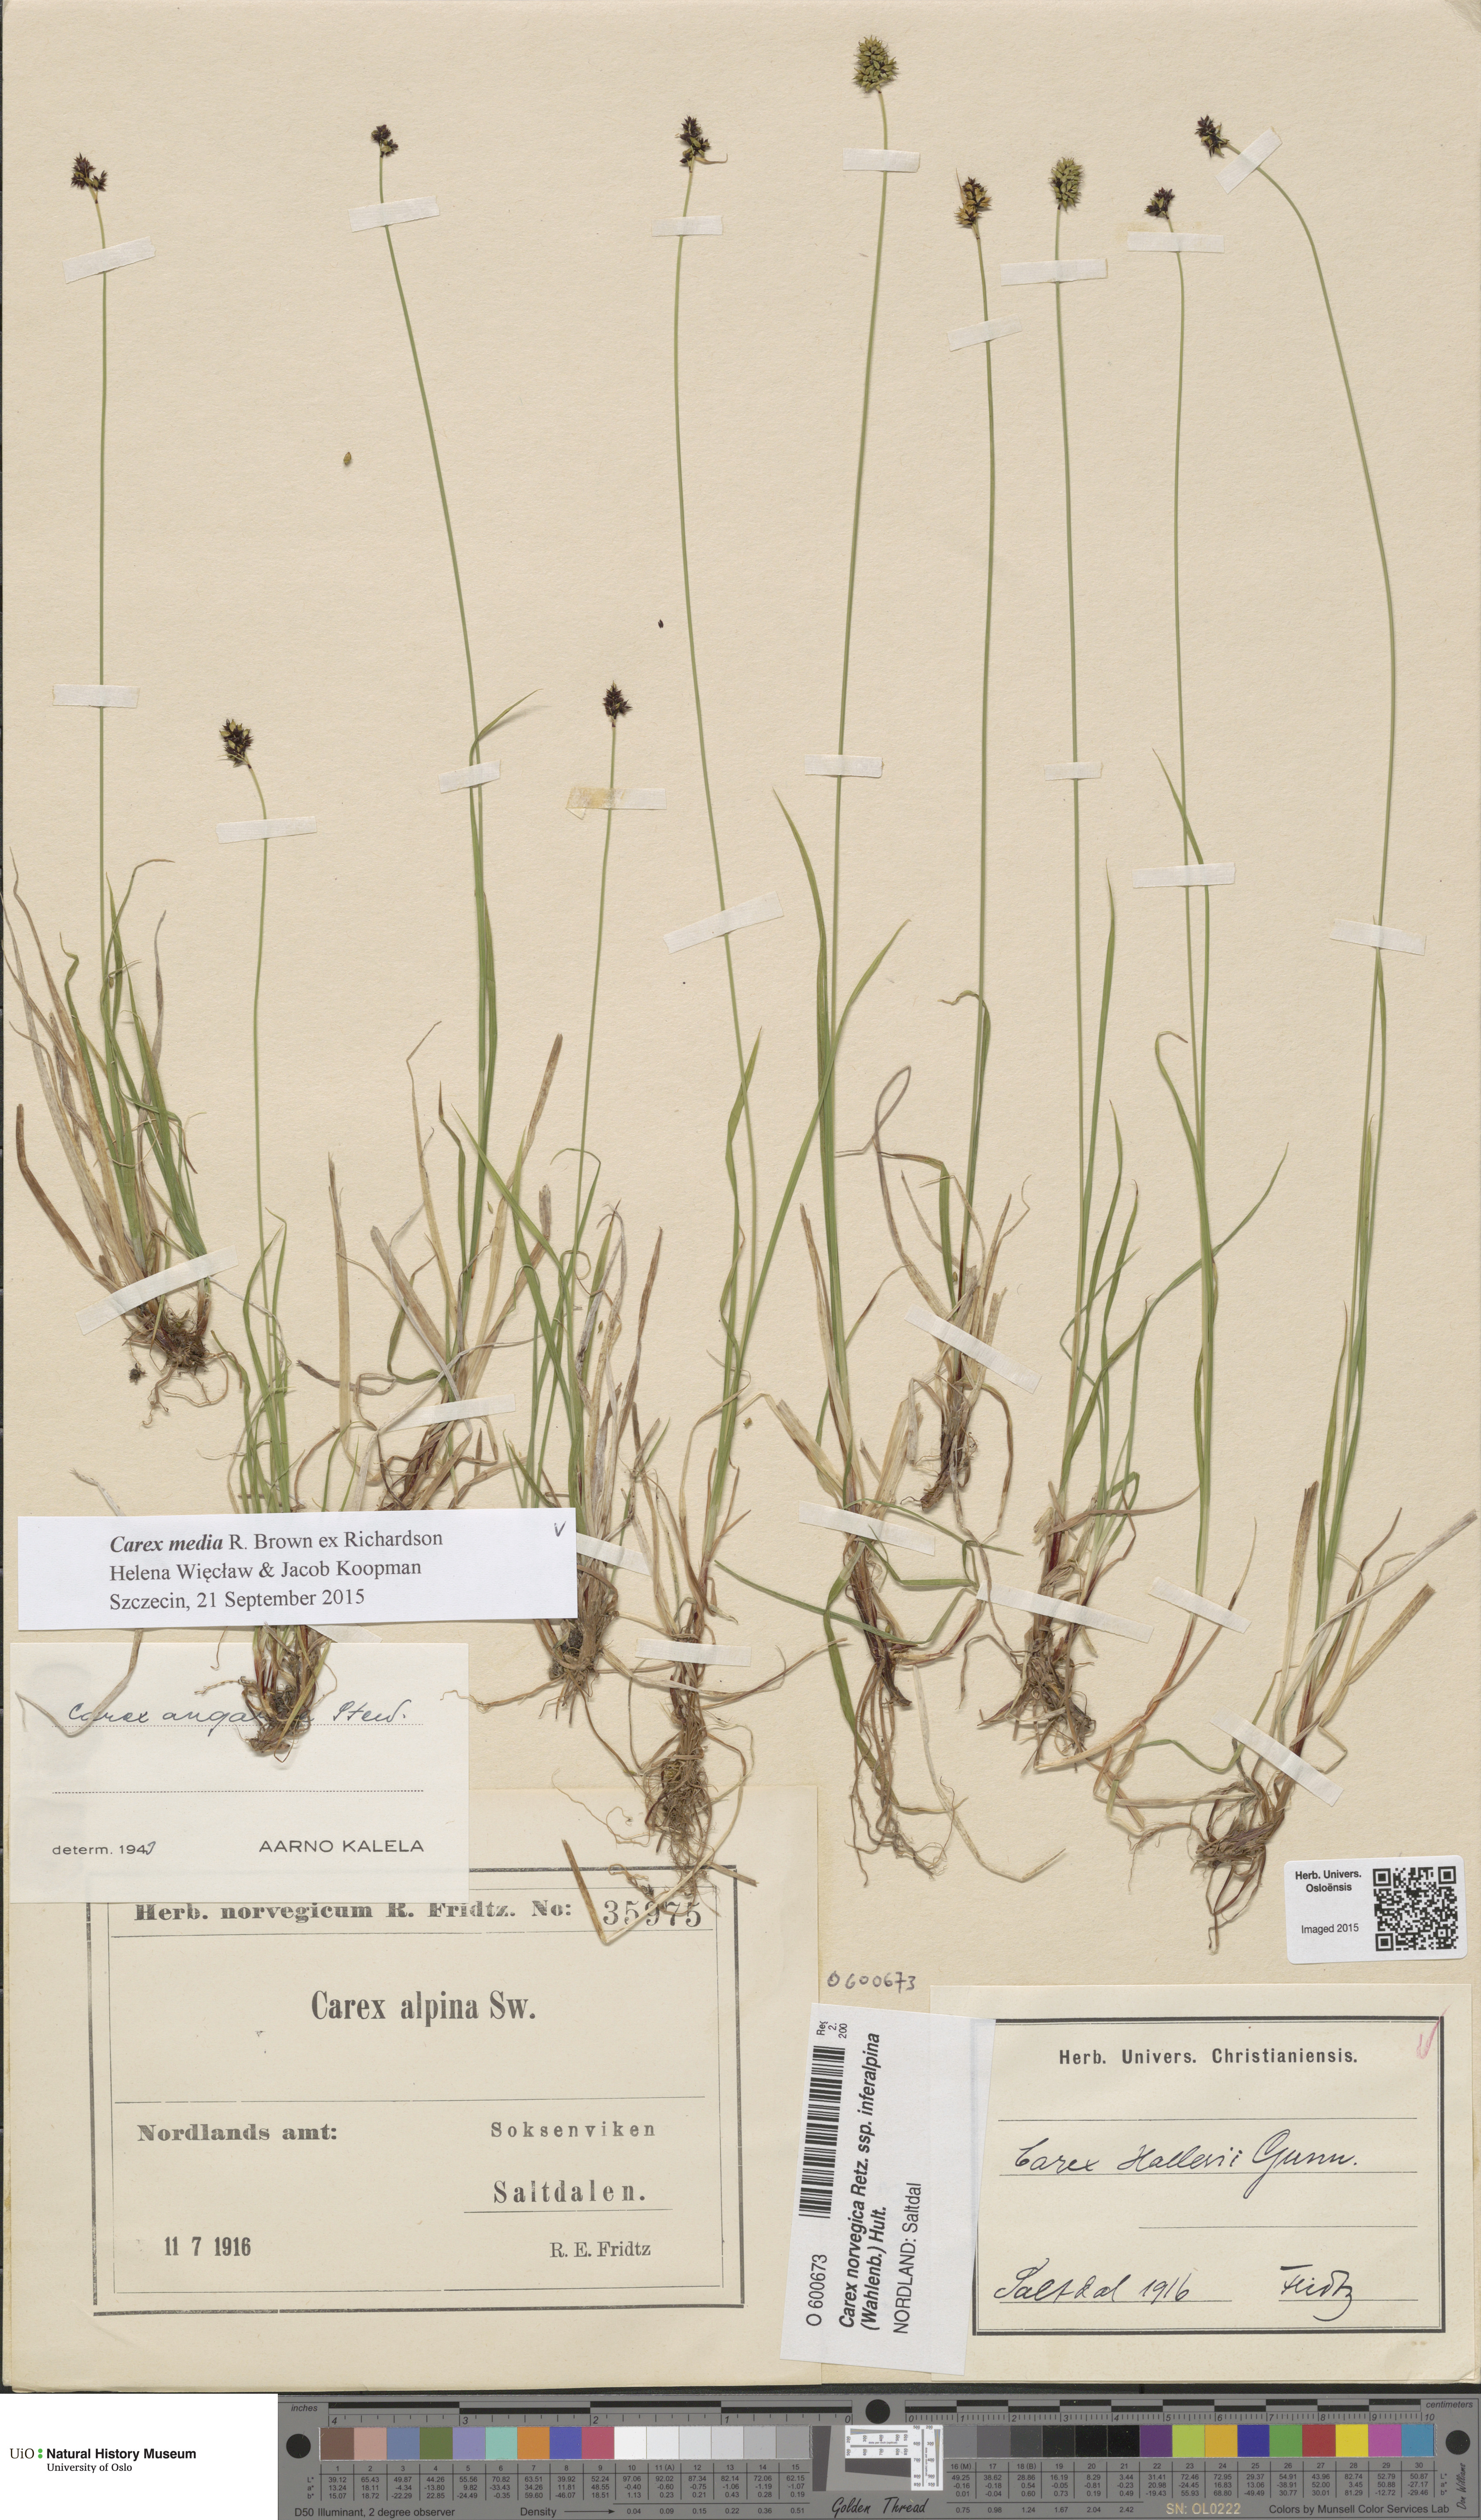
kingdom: Plantae
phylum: Tracheophyta
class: Liliopsida
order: Poales
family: Cyperaceae
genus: Carex
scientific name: Carex media
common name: Alpine sedge
